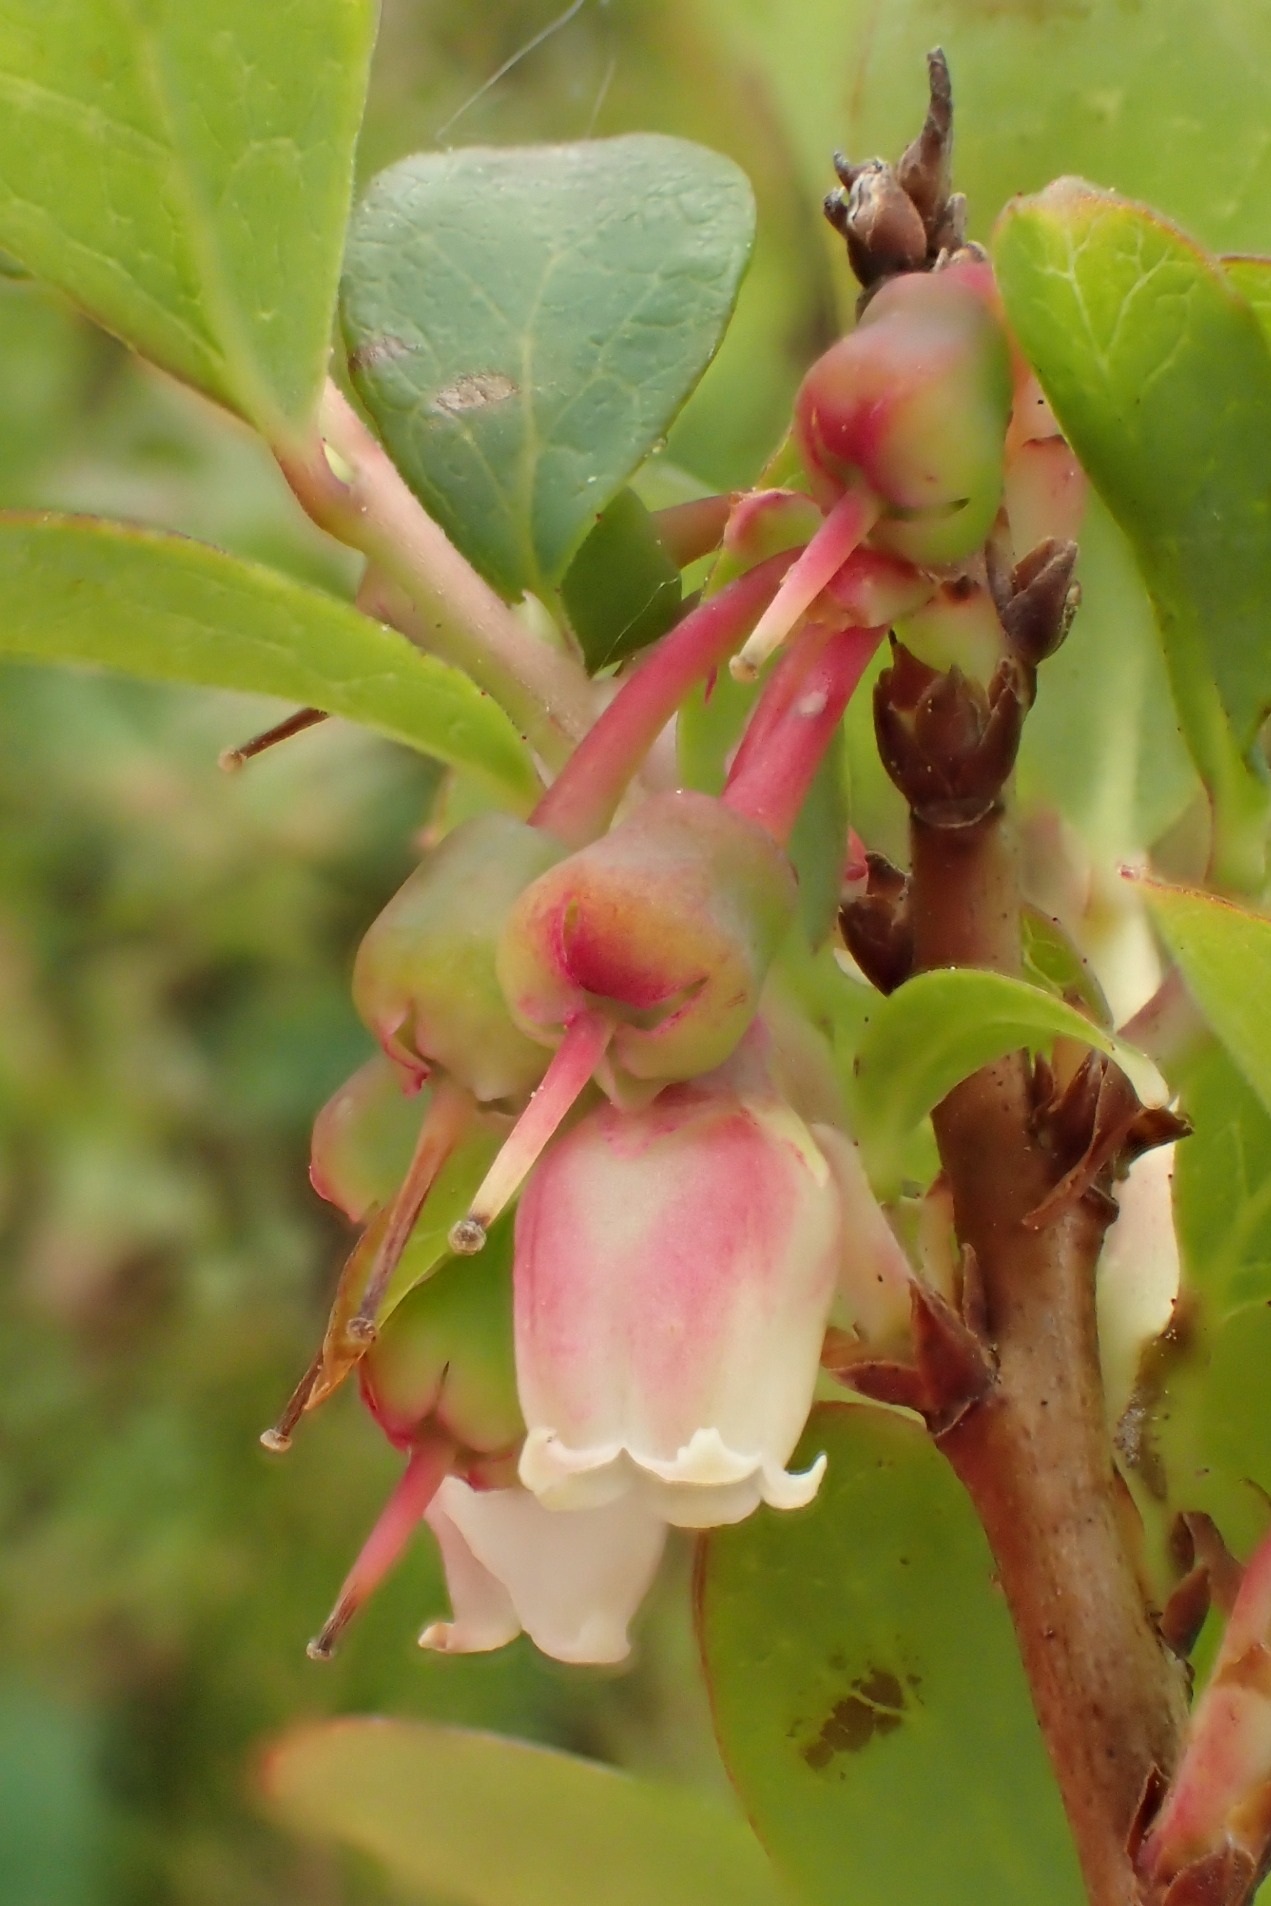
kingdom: Plantae
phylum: Tracheophyta
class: Magnoliopsida
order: Ericales
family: Ericaceae
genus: Vaccinium
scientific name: Vaccinium uliginosum
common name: Mose-bølle
